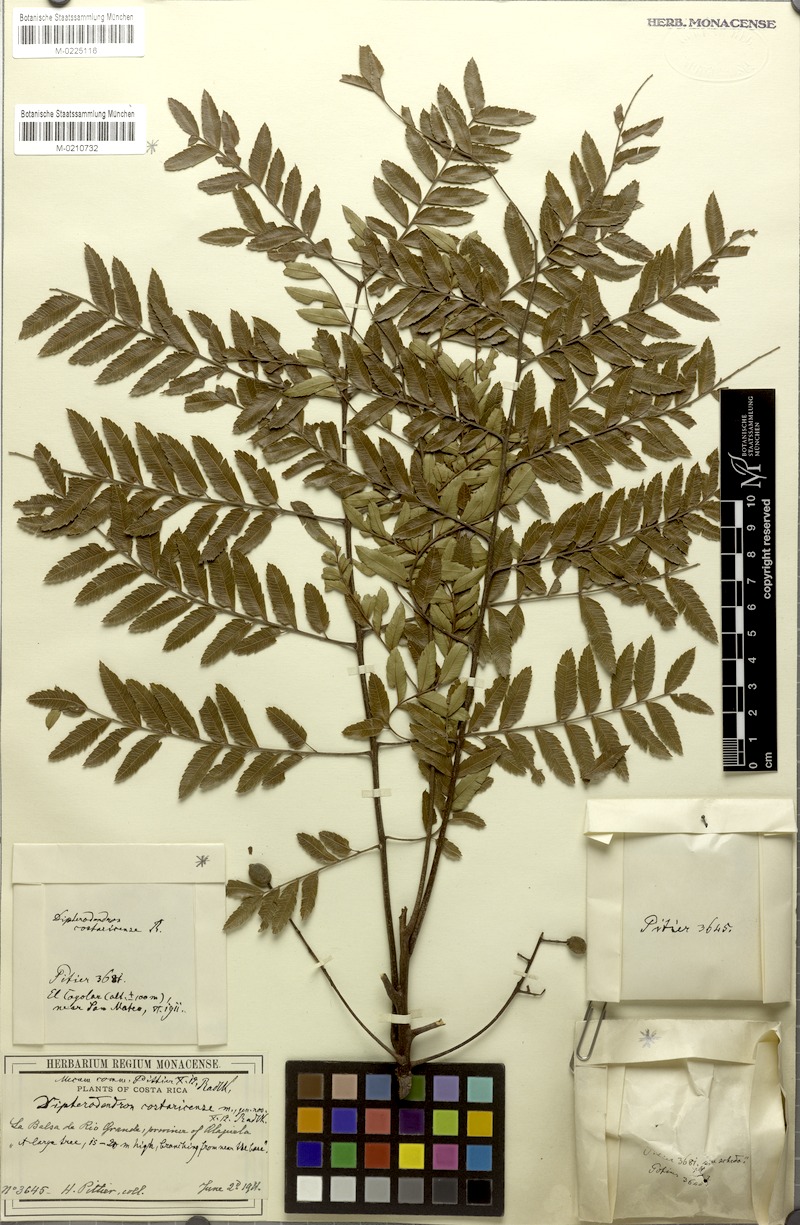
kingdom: Plantae
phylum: Tracheophyta
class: Magnoliopsida
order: Sapindales
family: Sapindaceae
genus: Dilodendron
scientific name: Dilodendron costaricense
